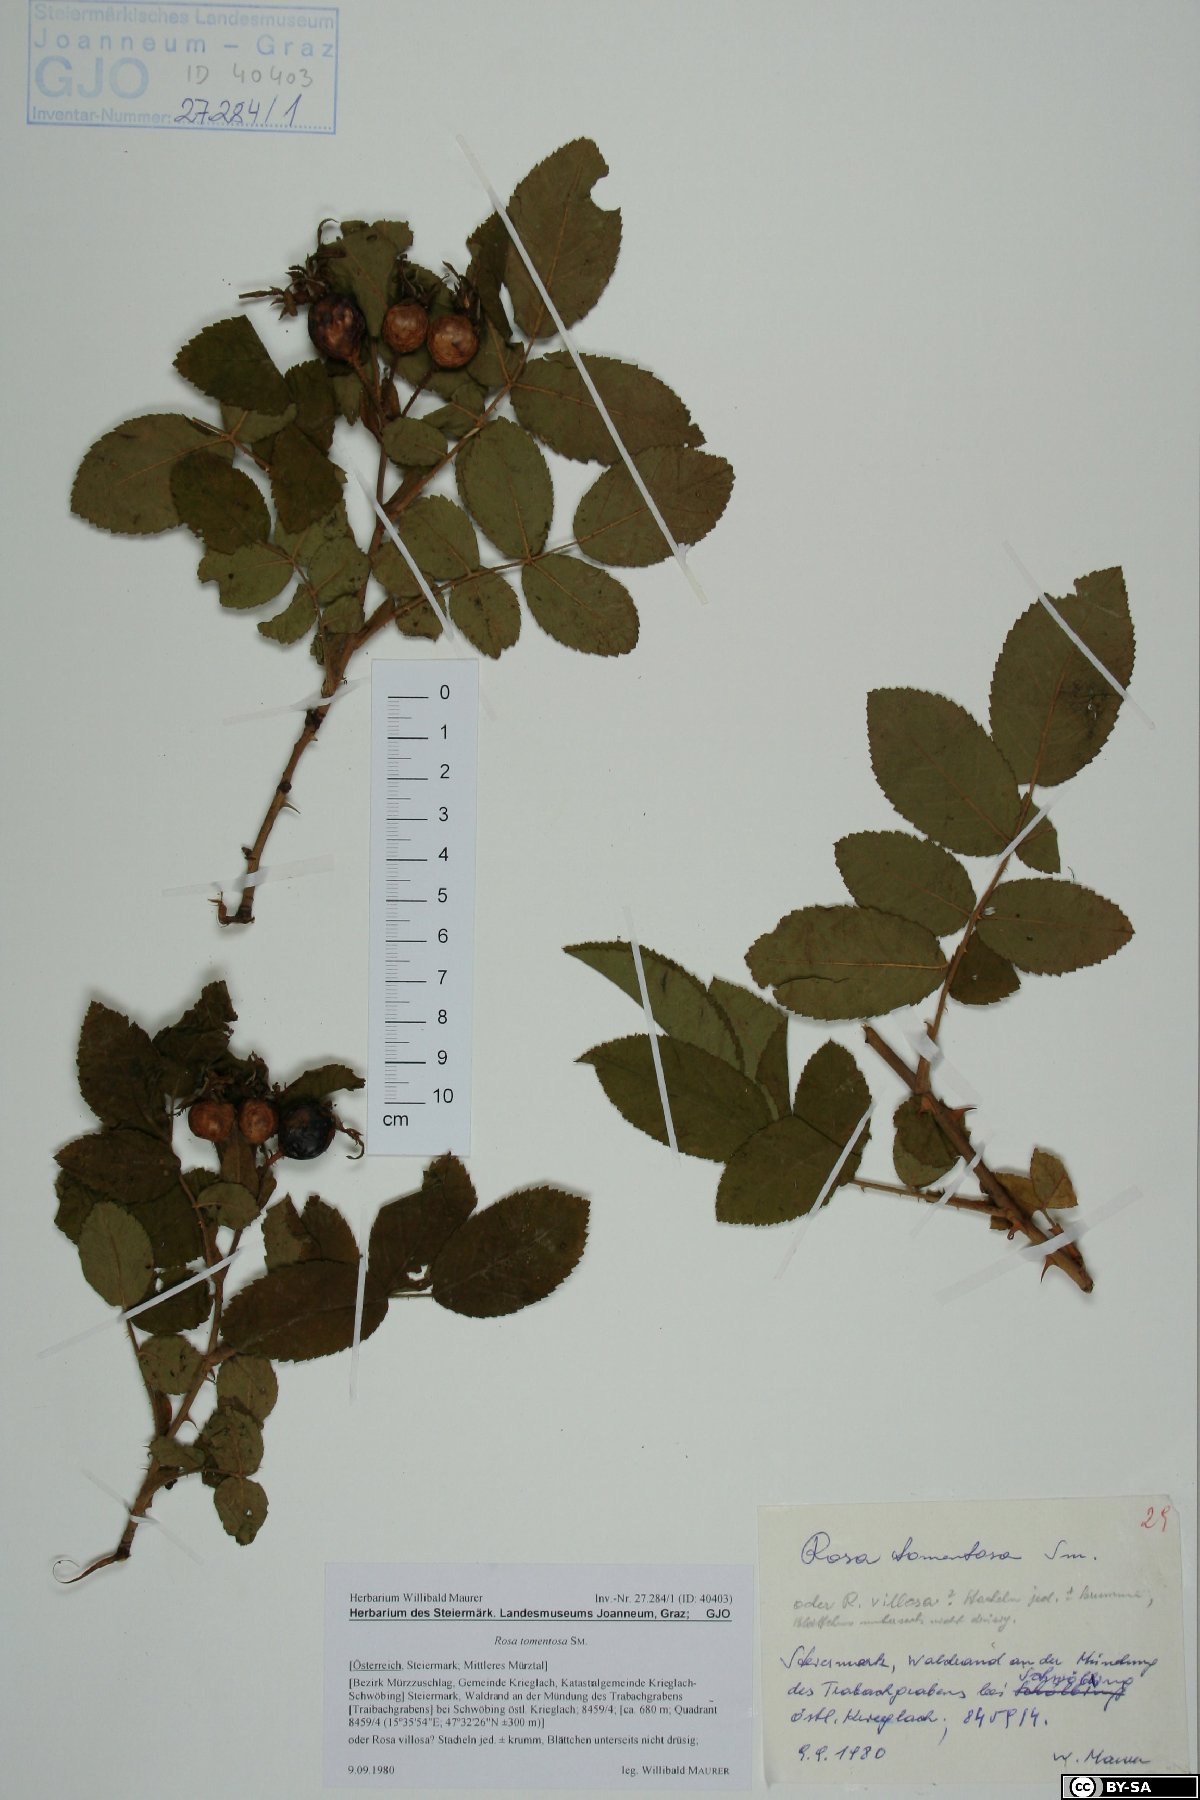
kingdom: Plantae
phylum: Tracheophyta
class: Magnoliopsida
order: Rosales
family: Rosaceae
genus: Rosa
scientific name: Rosa tomentosa
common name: Downy rose
